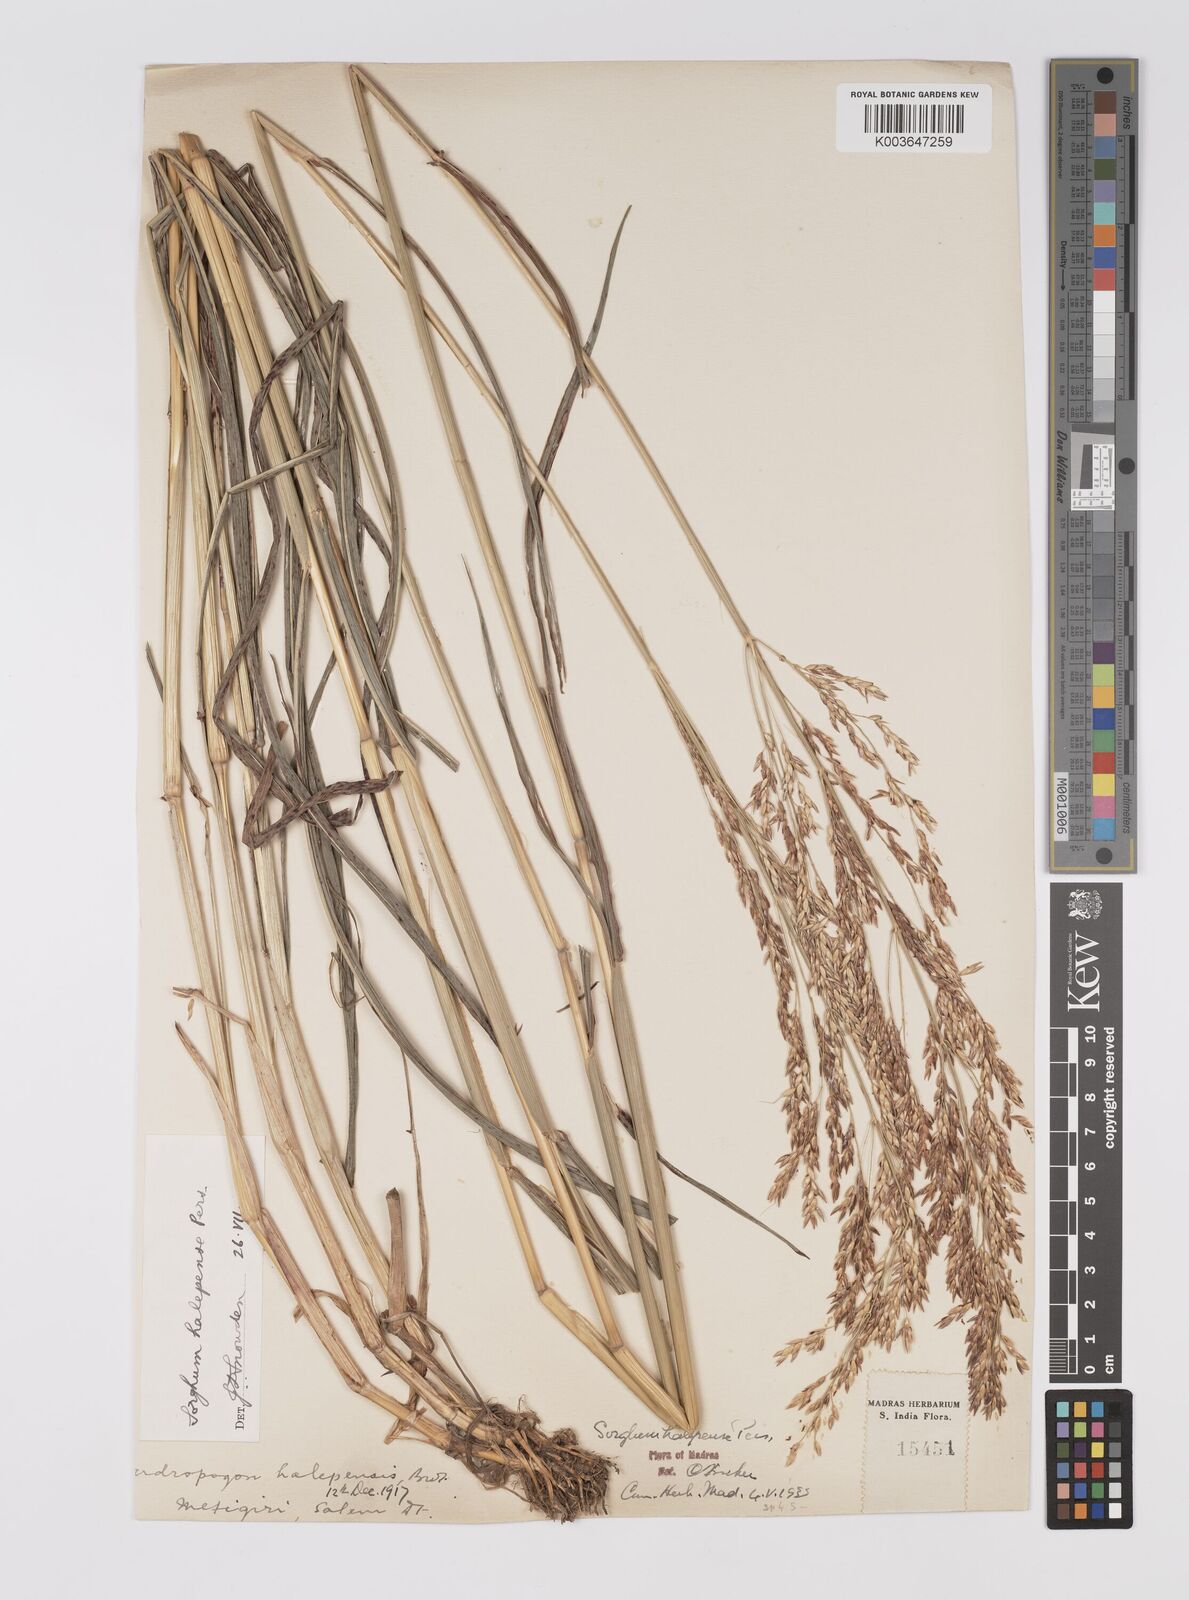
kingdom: Plantae
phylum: Tracheophyta
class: Liliopsida
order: Poales
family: Poaceae
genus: Sorghum
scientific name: Sorghum halepense
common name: Johnson-grass
